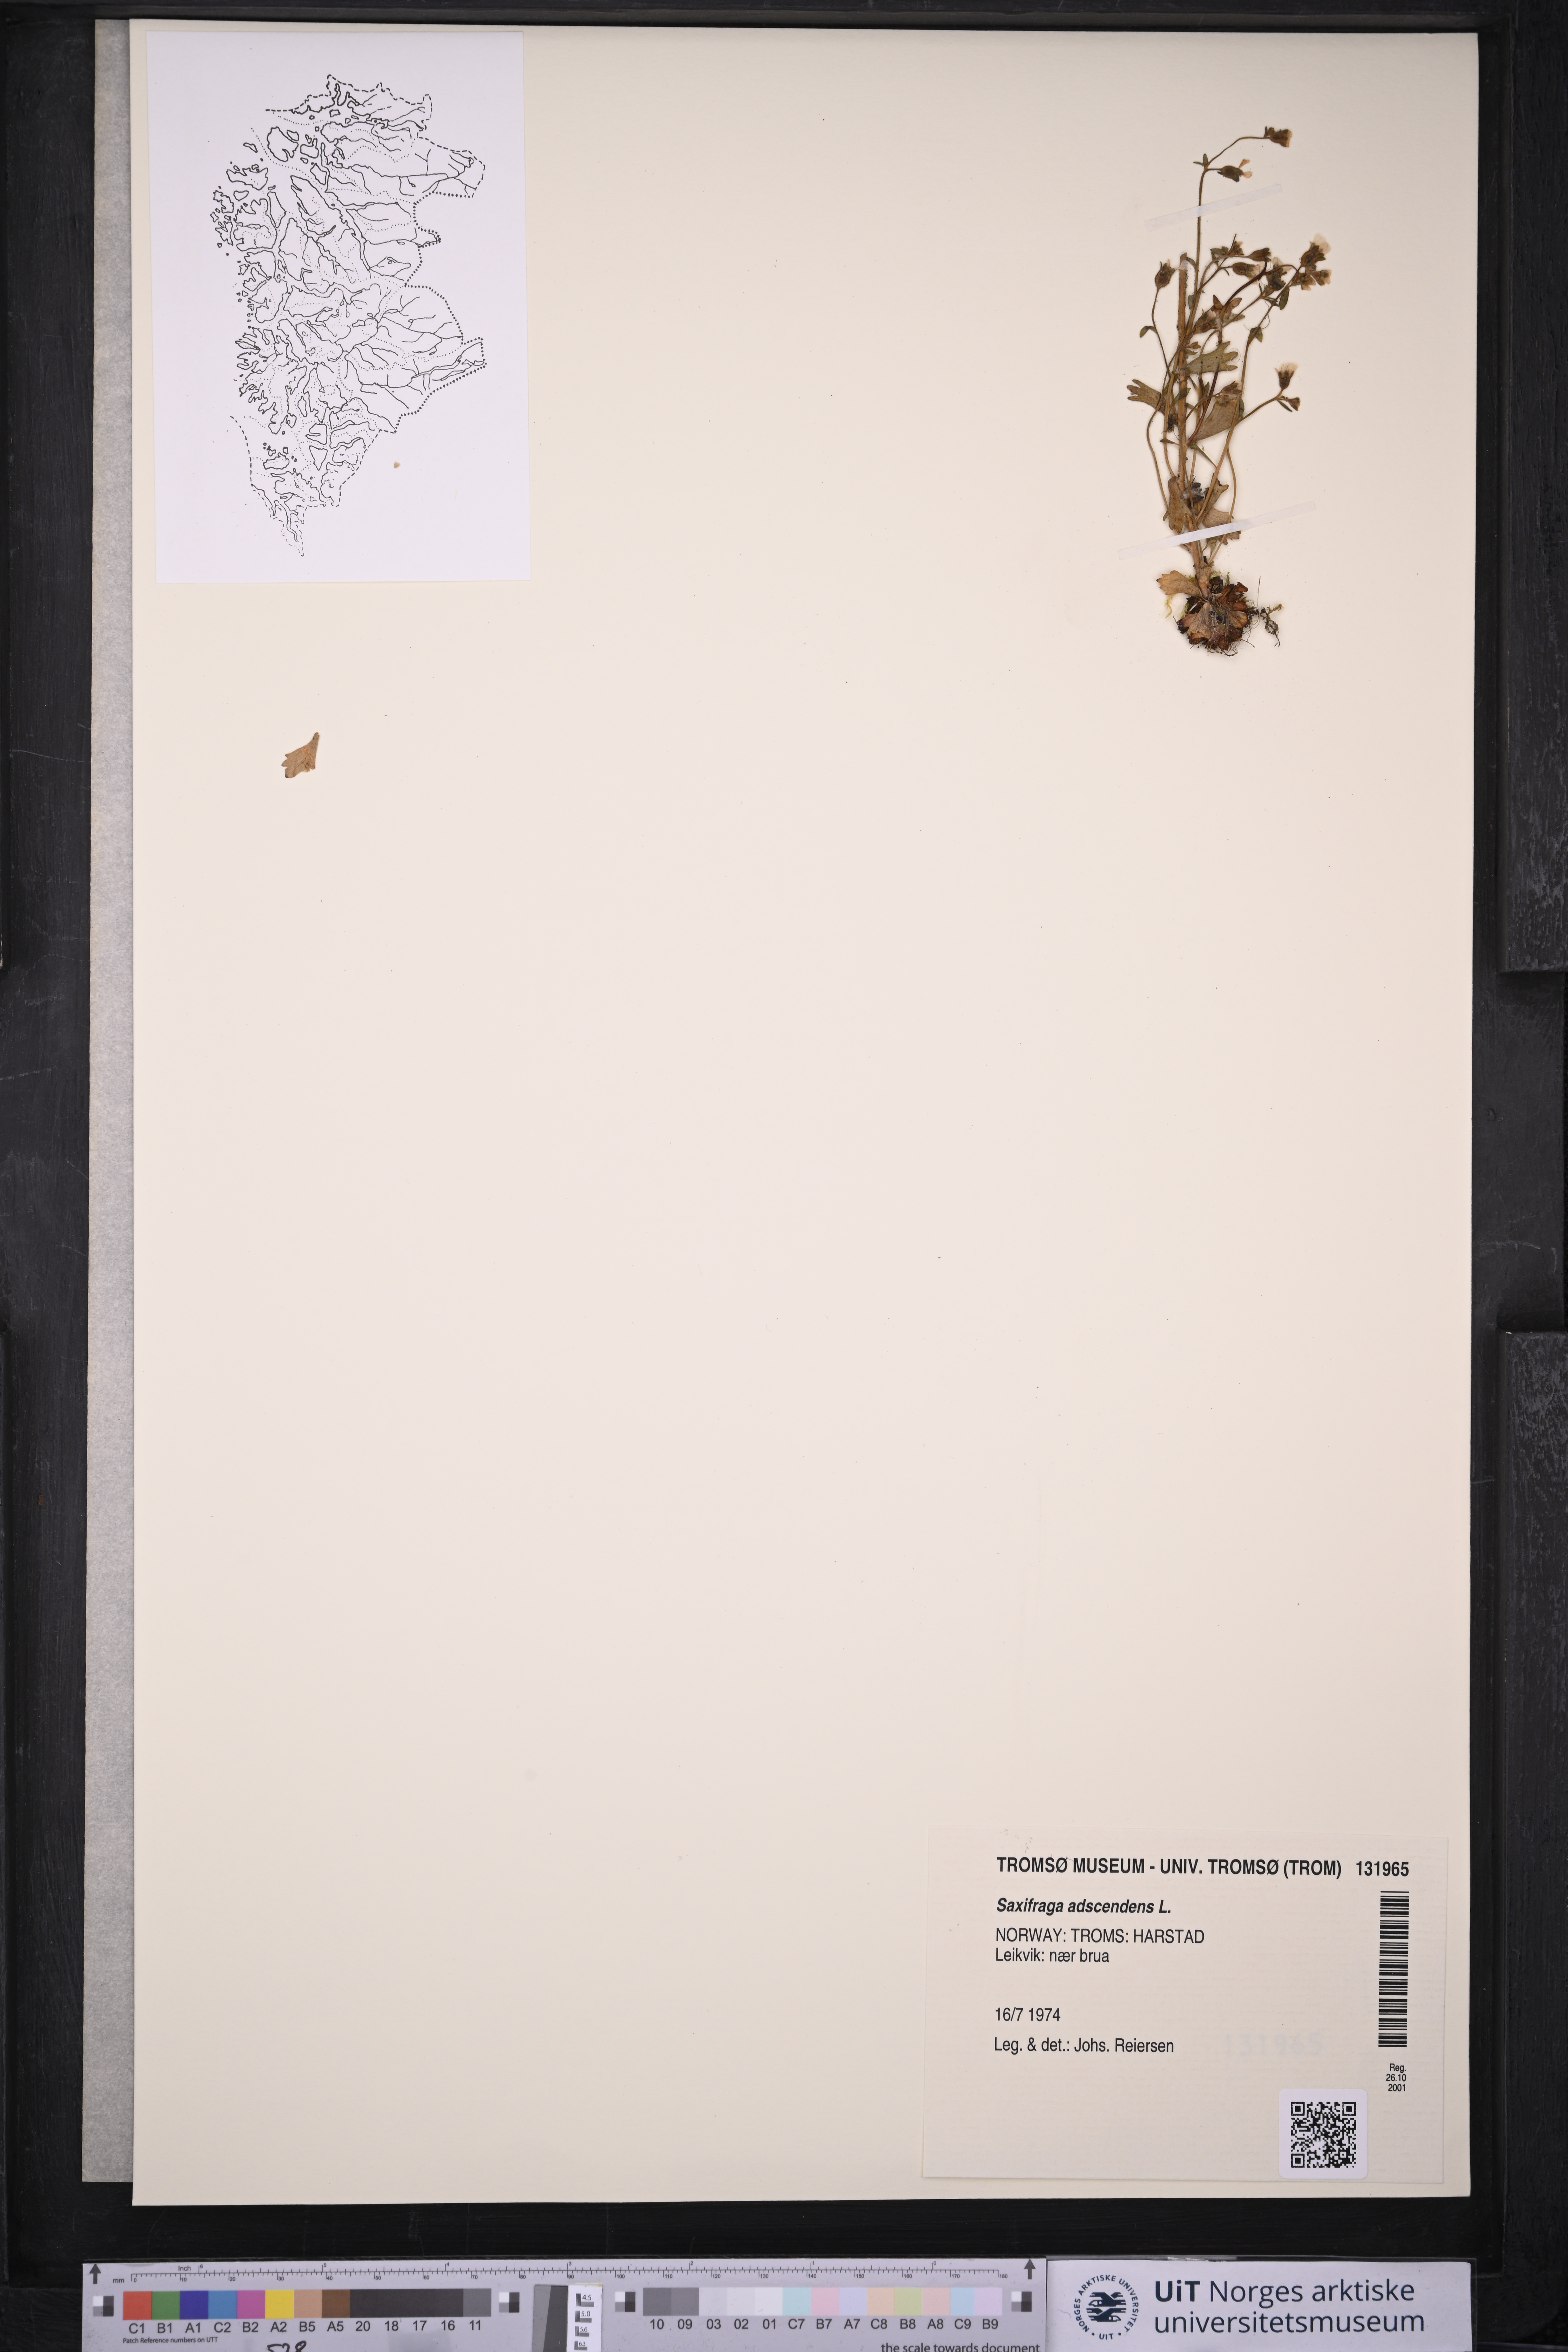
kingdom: Plantae
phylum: Tracheophyta
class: Magnoliopsida
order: Saxifragales
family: Saxifragaceae
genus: Saxifraga
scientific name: Saxifraga adscendens
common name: Ascending saxifrage
